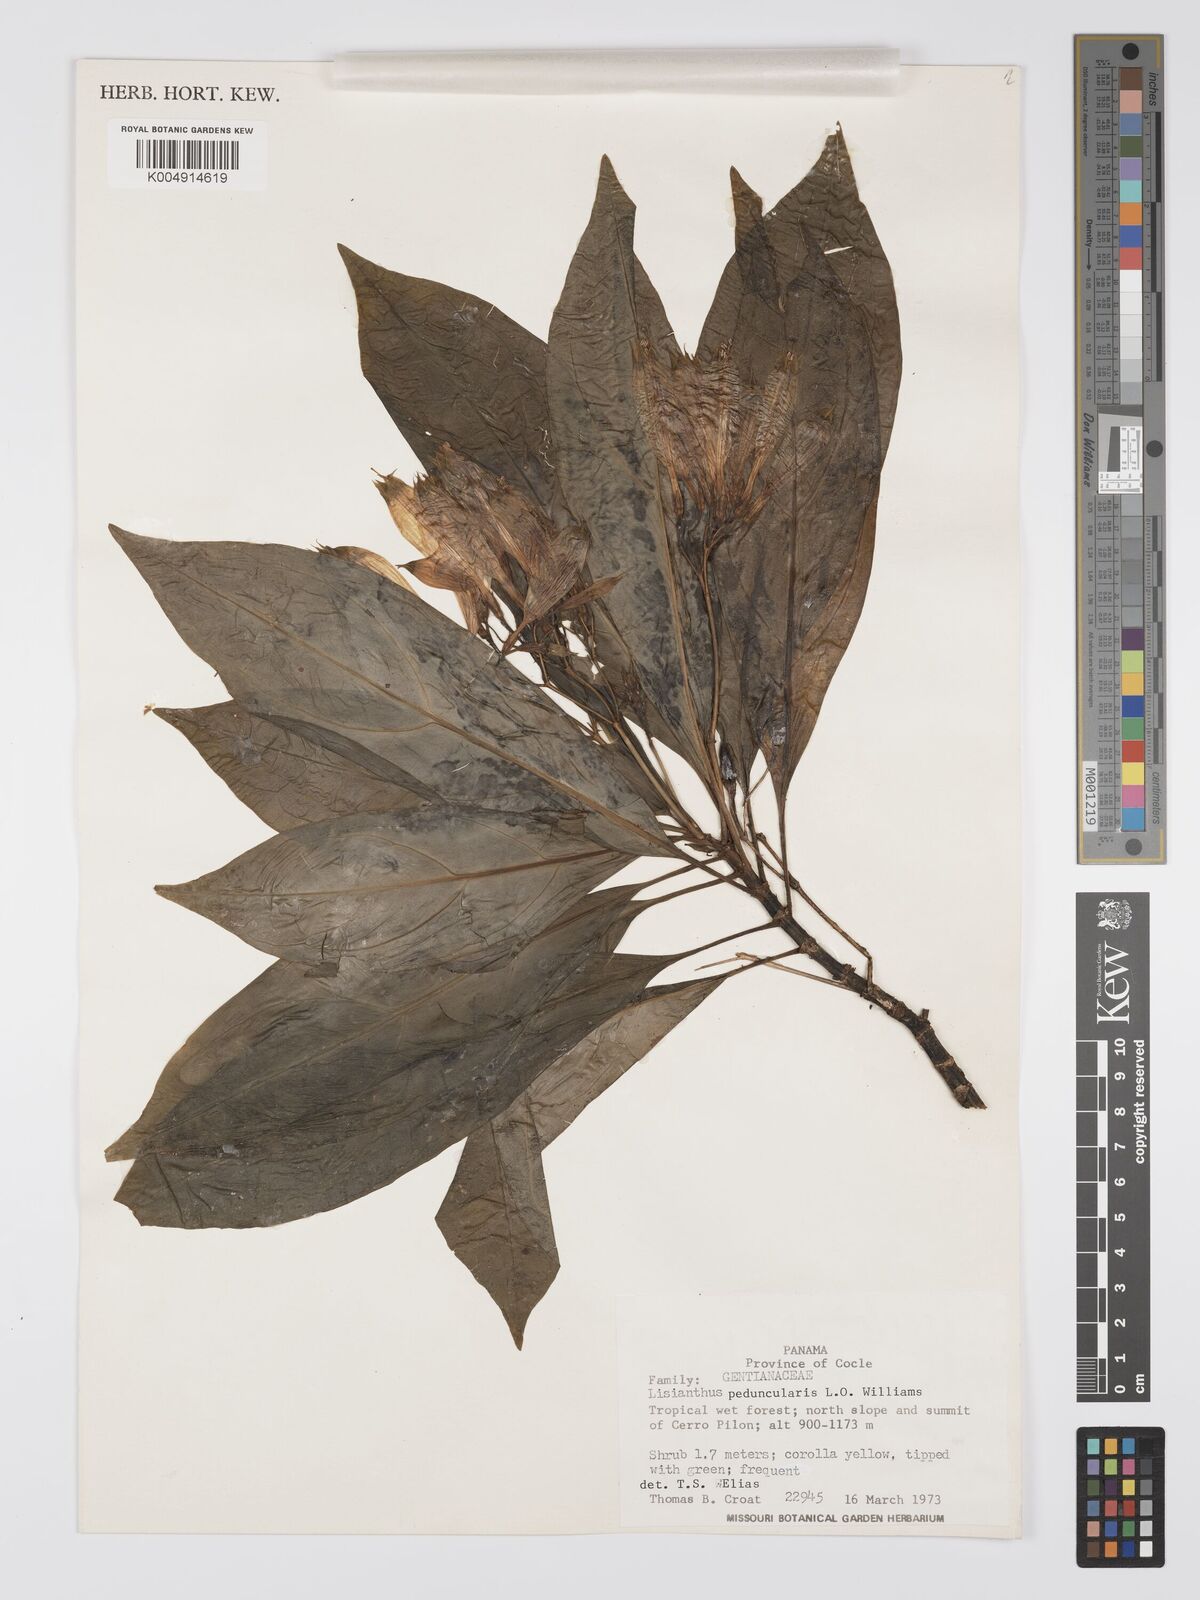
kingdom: Plantae
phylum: Tracheophyta
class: Magnoliopsida
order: Gentianales
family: Gentianaceae
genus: Lisianthius
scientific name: Lisianthius peduncularis
